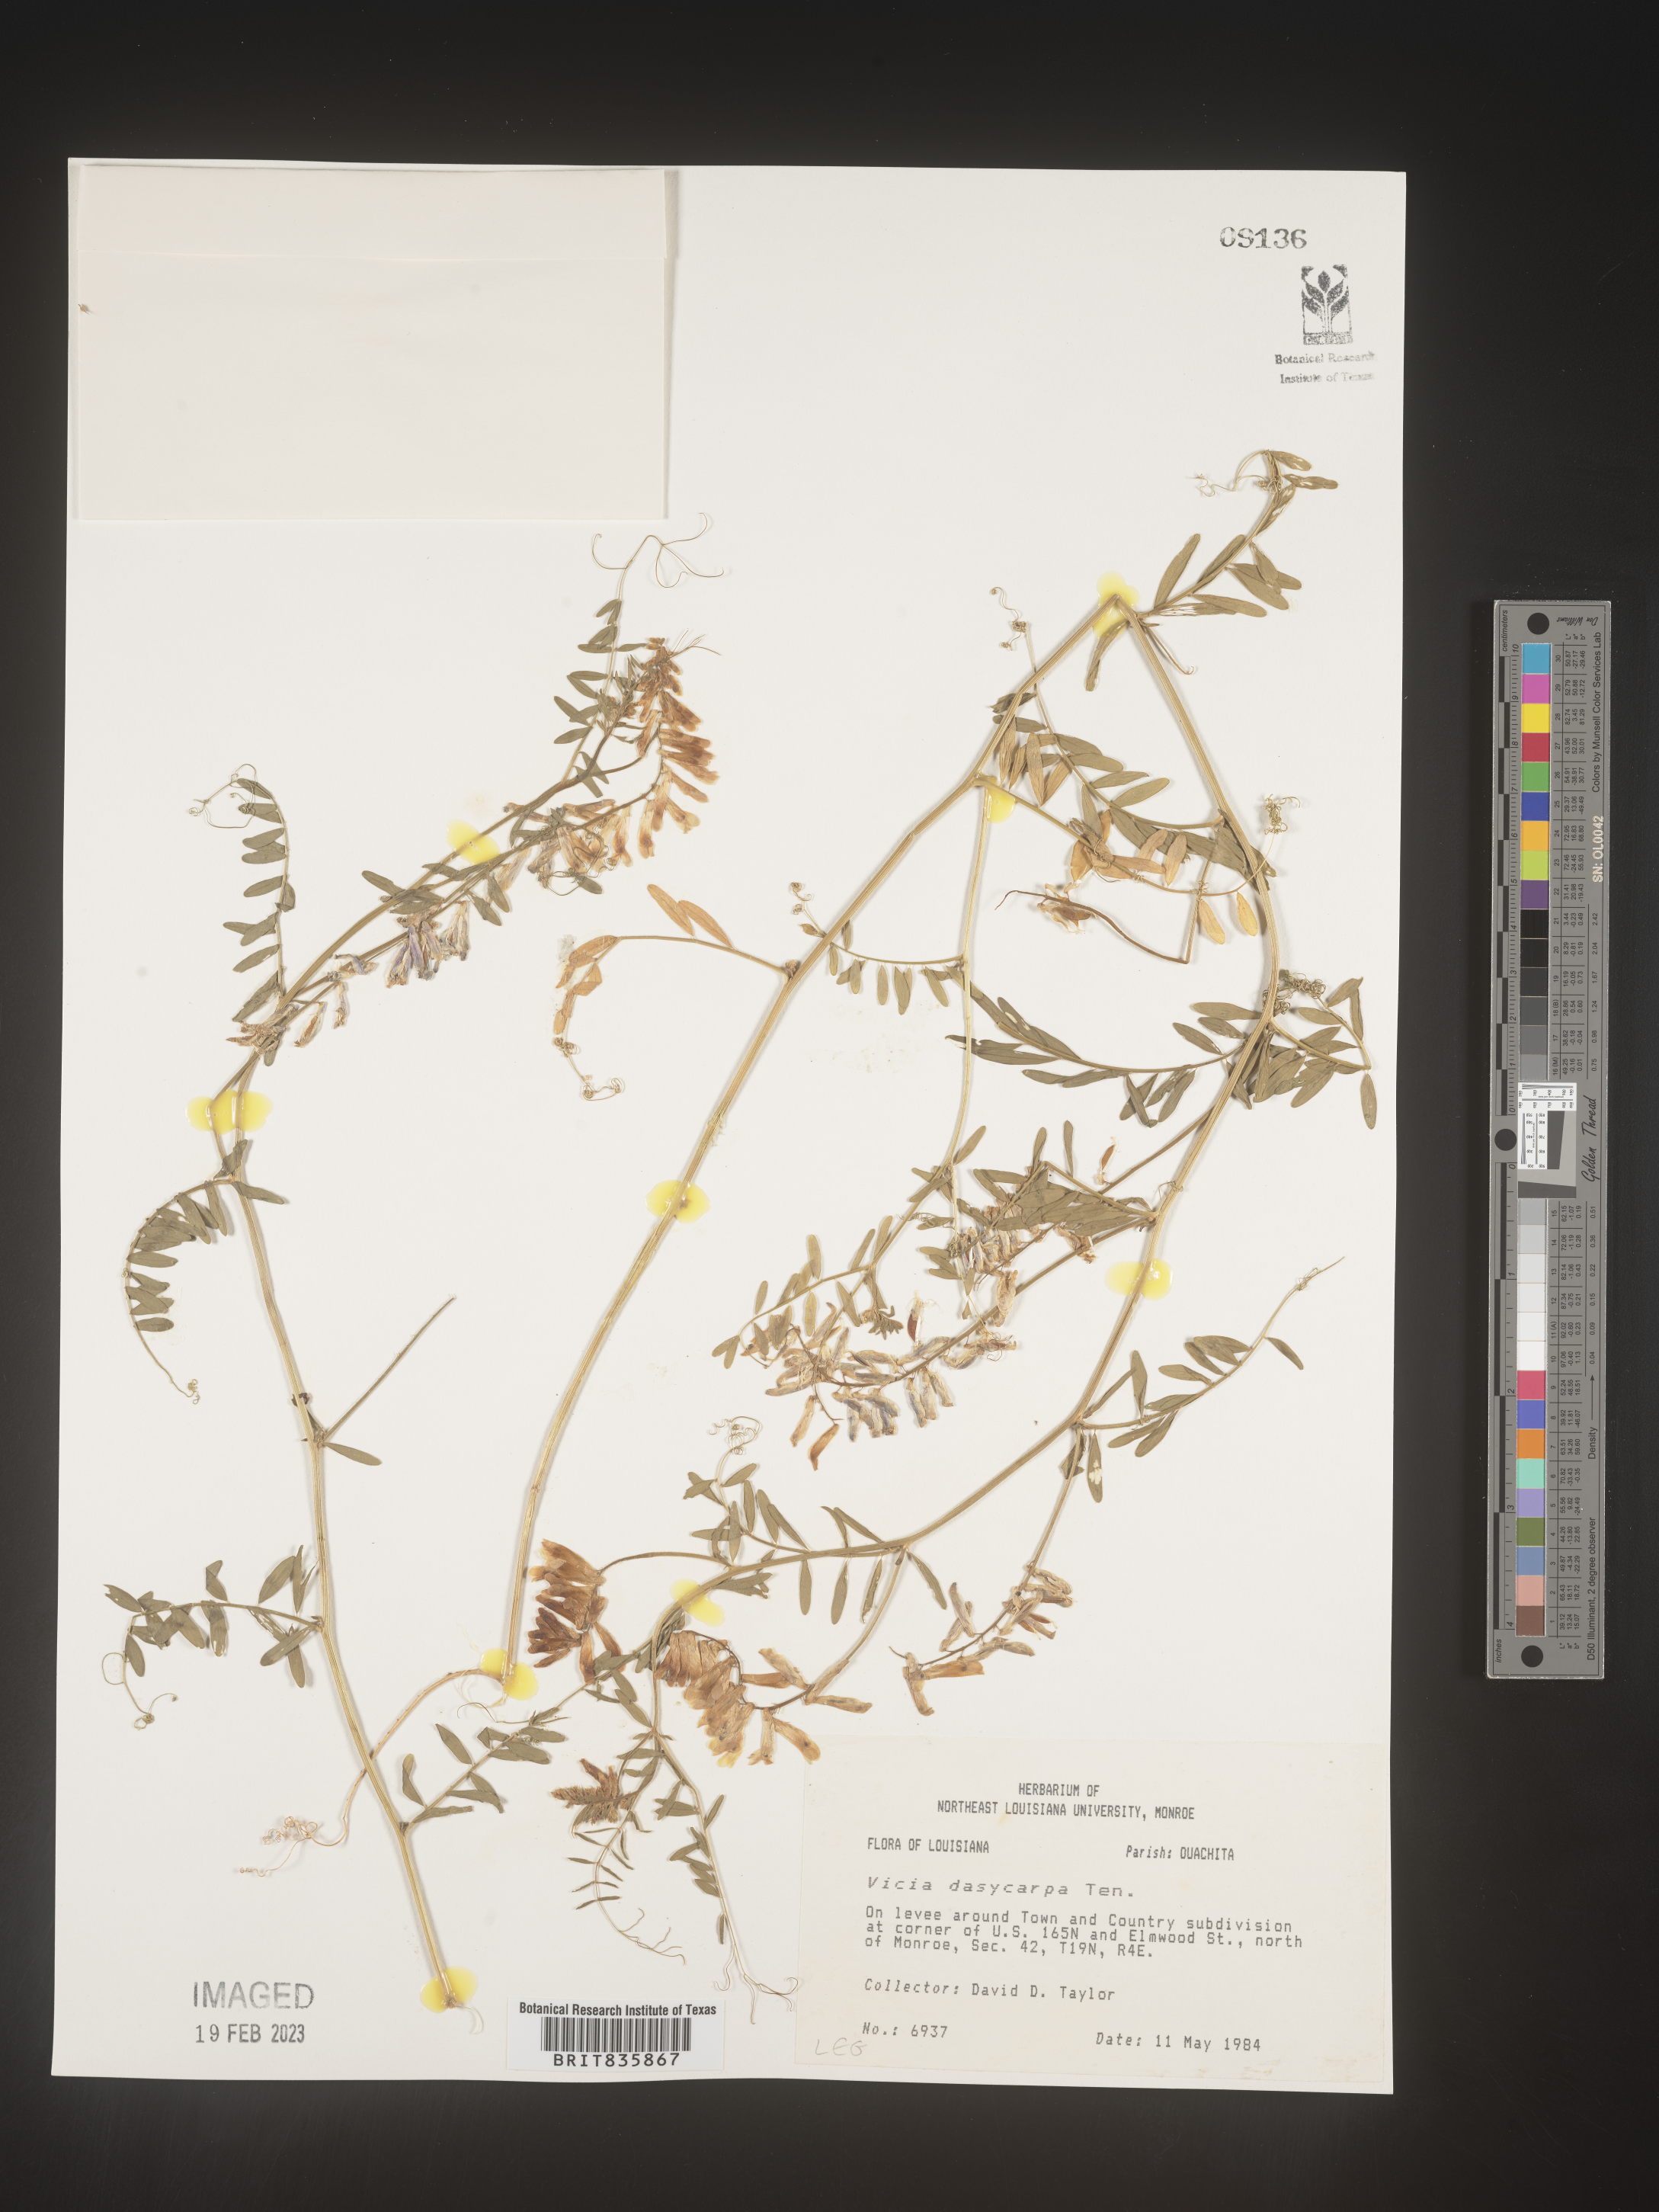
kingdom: Plantae
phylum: Tracheophyta
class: Magnoliopsida
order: Fabales
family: Fabaceae
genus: Vicia
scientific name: Vicia villosa
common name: Fodder vetch
